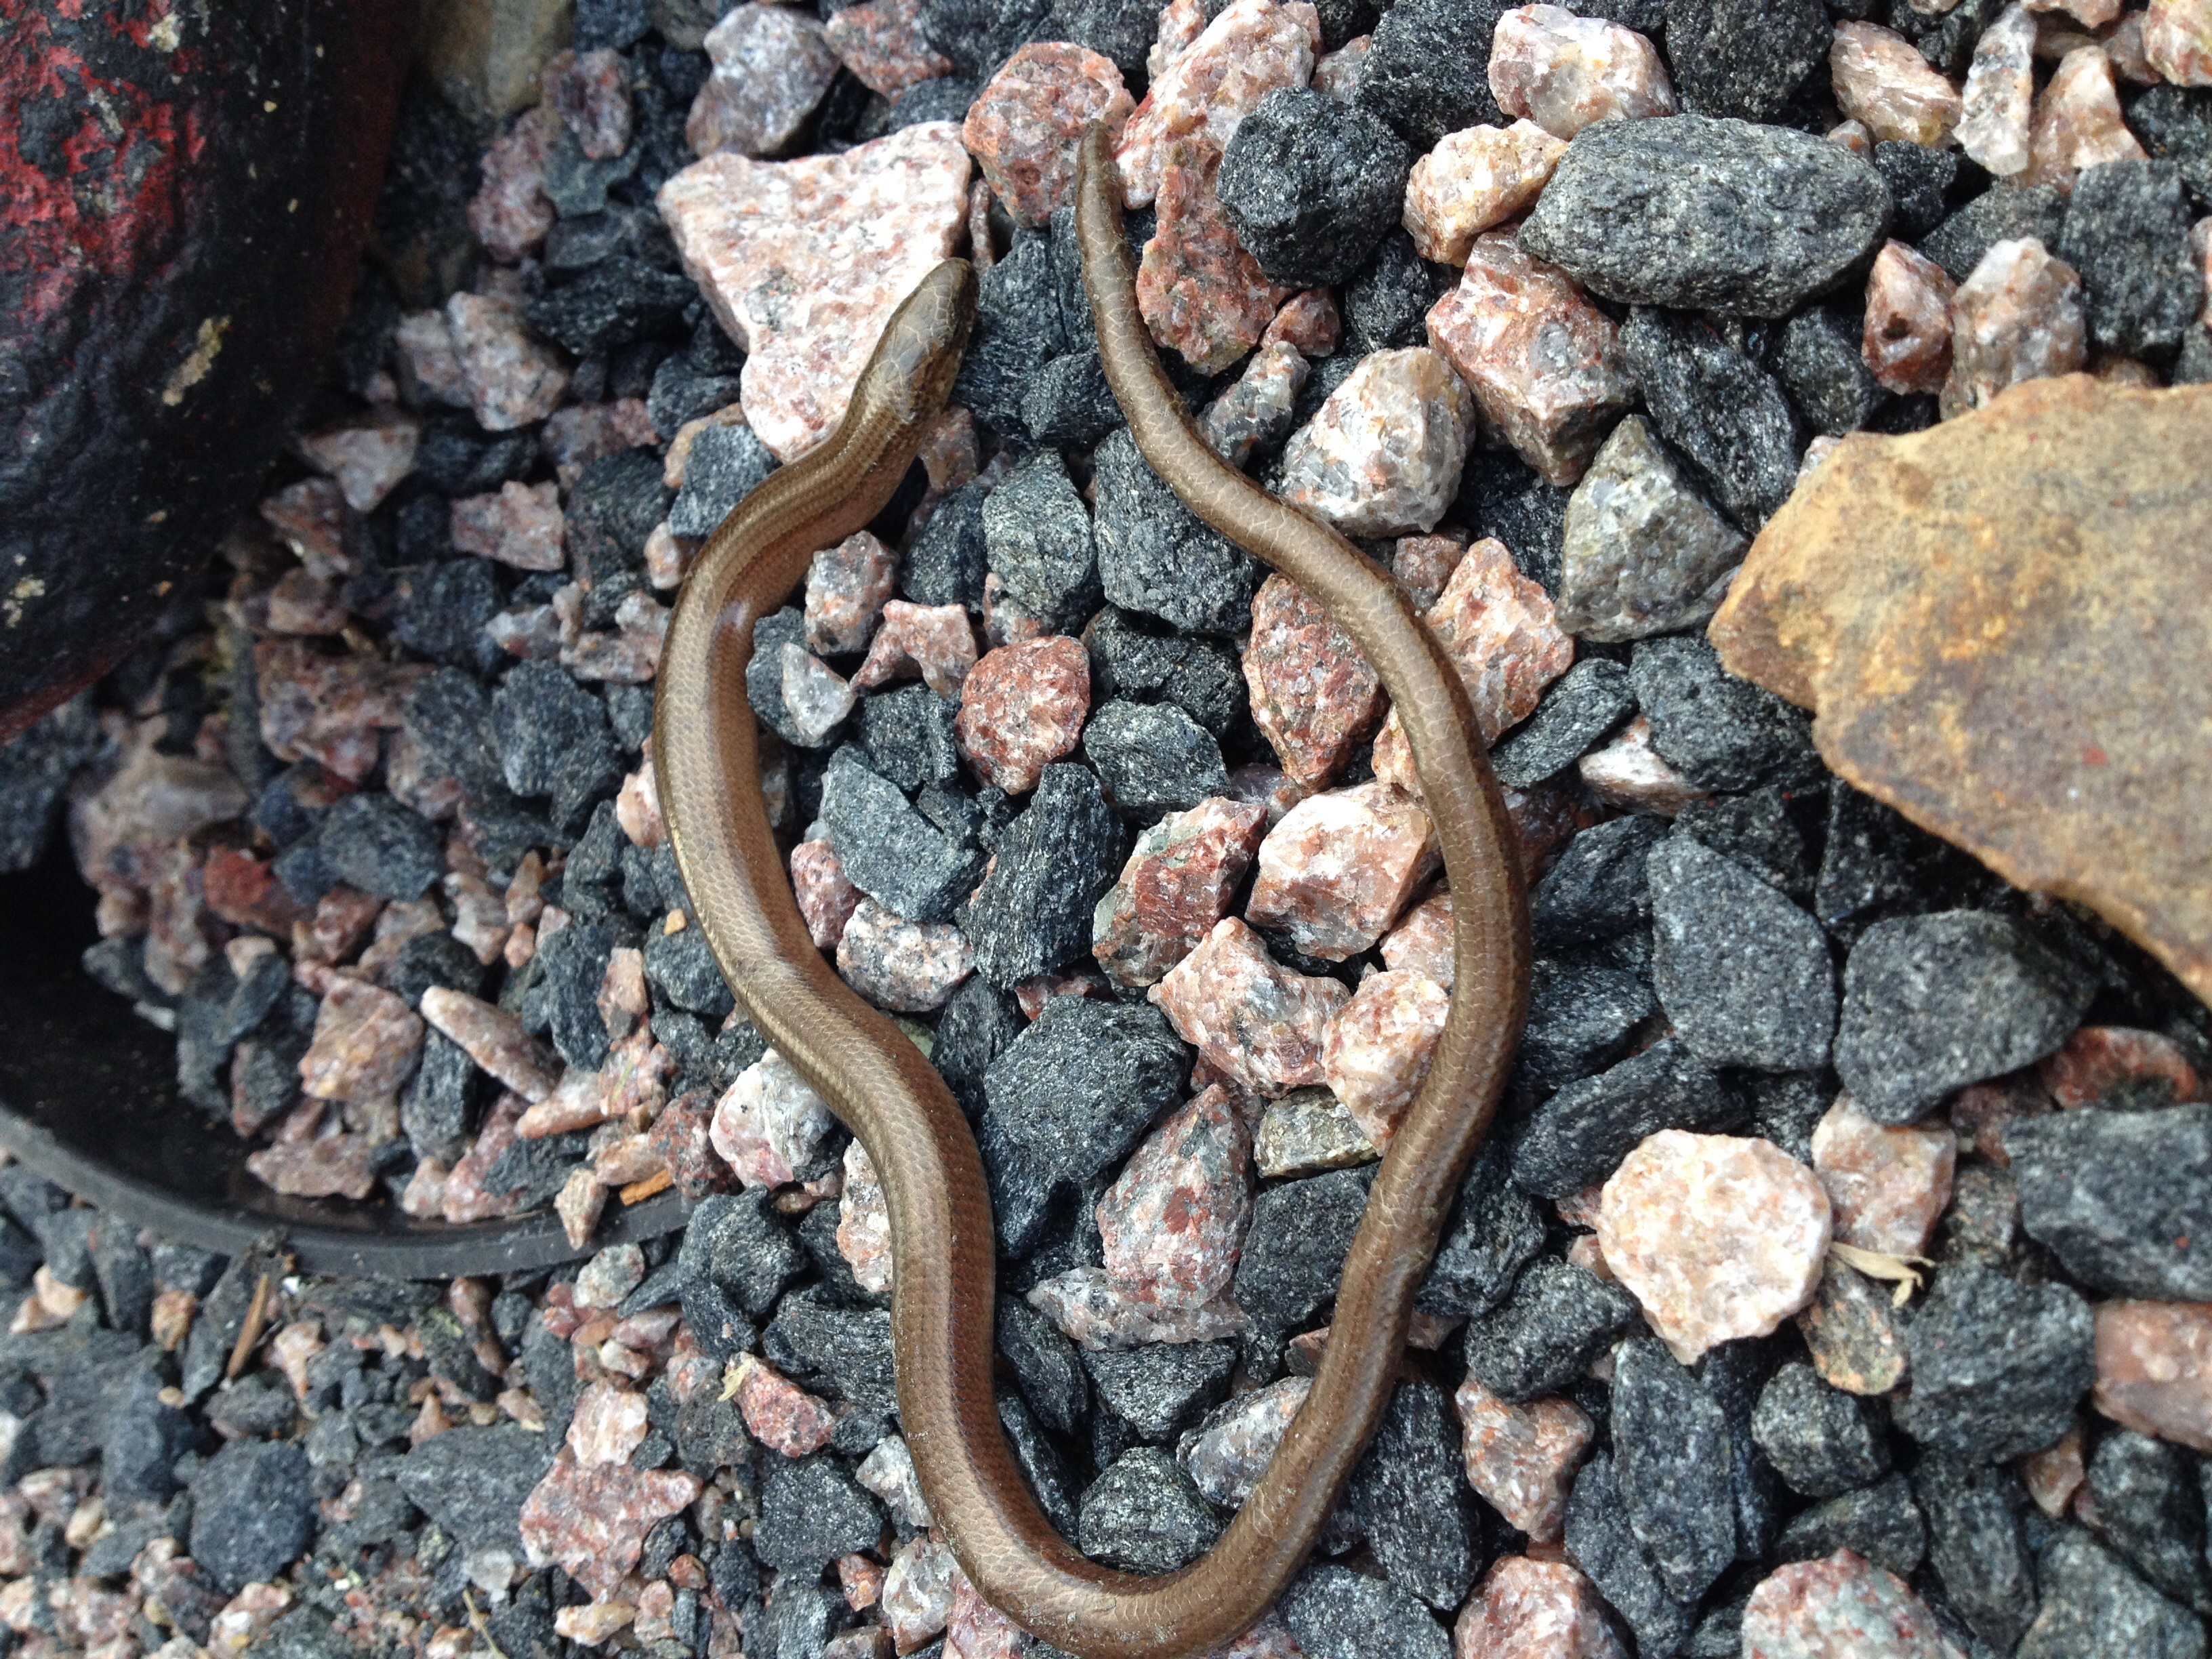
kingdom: Animalia
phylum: Chordata
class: Squamata
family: Anguidae
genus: Anguis
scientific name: Anguis colchica
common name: Slow worm
